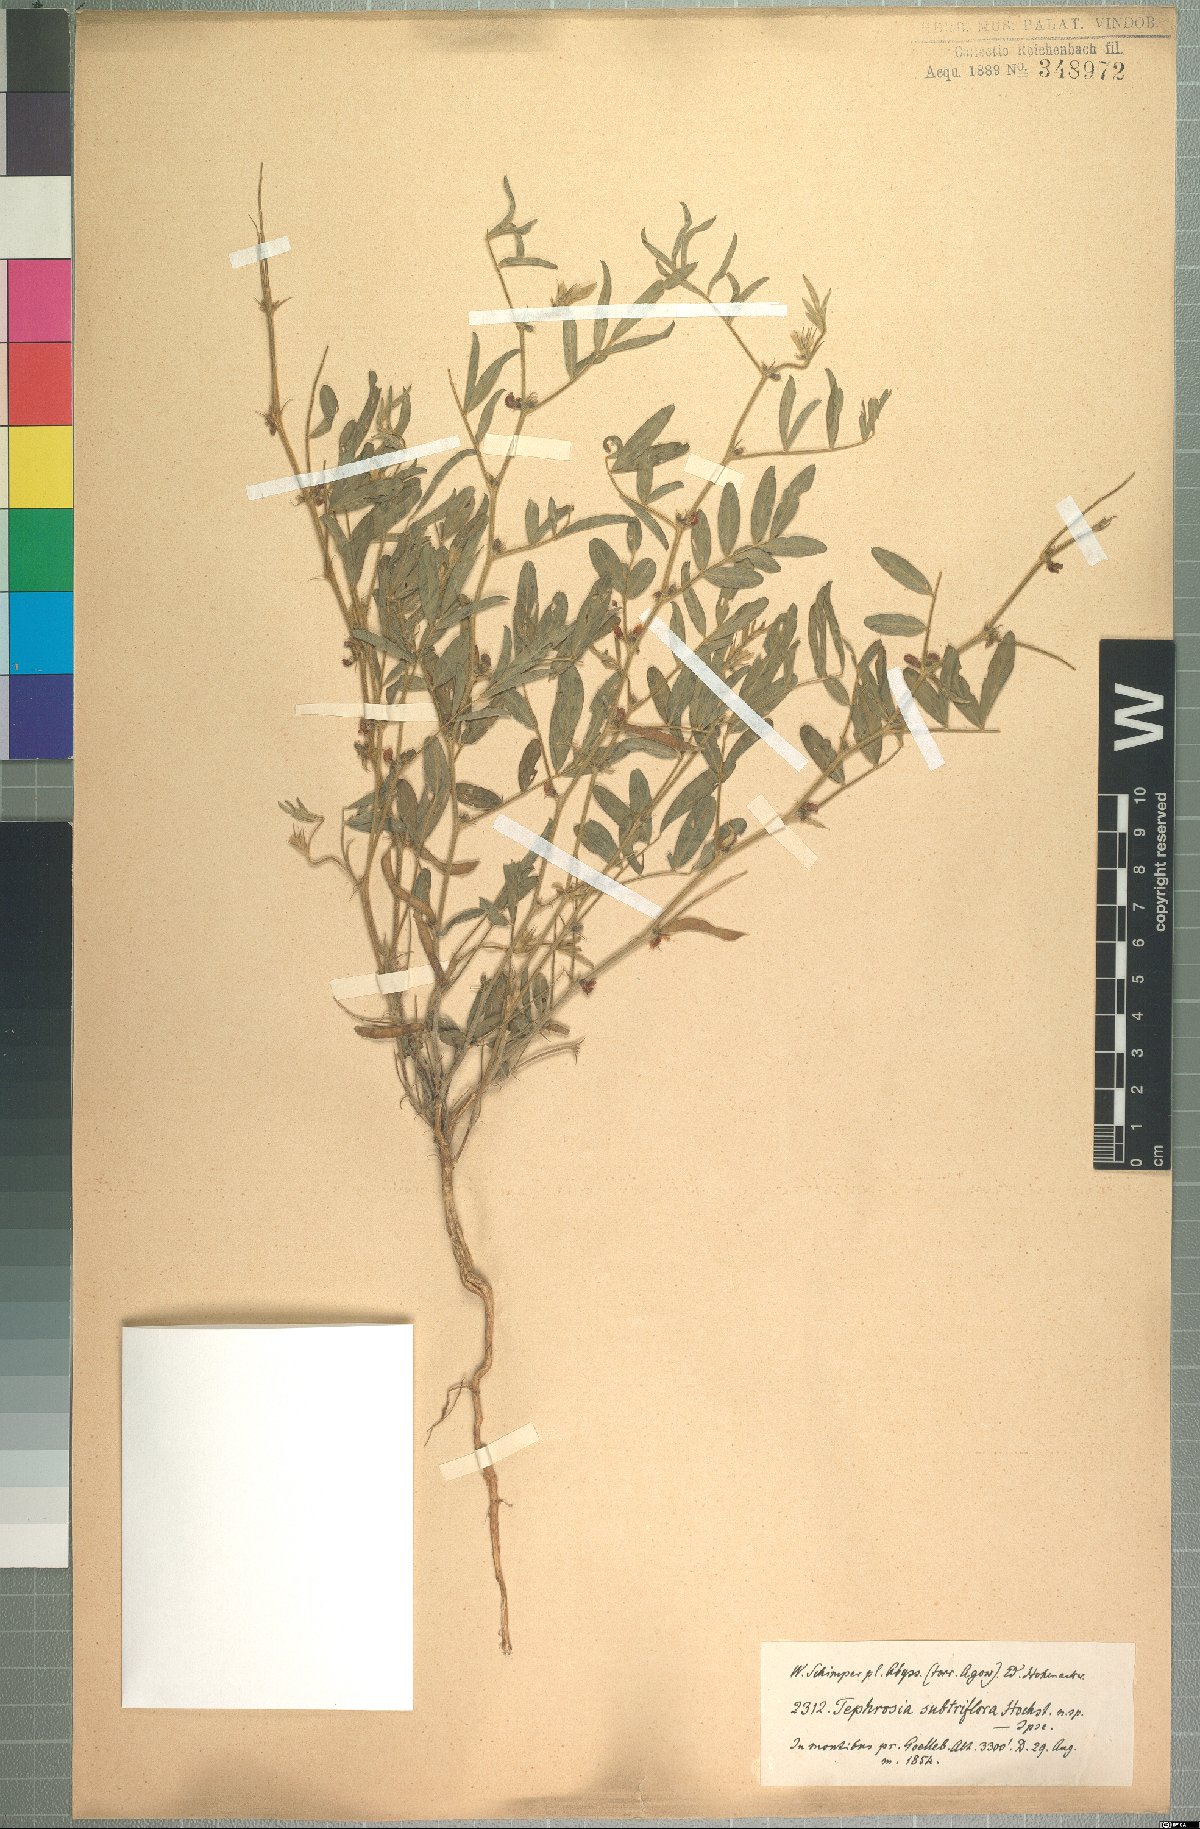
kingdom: Plantae
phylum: Tracheophyta
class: Magnoliopsida
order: Fabales
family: Fabaceae
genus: Tephrosia
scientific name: Tephrosia subtriflora
